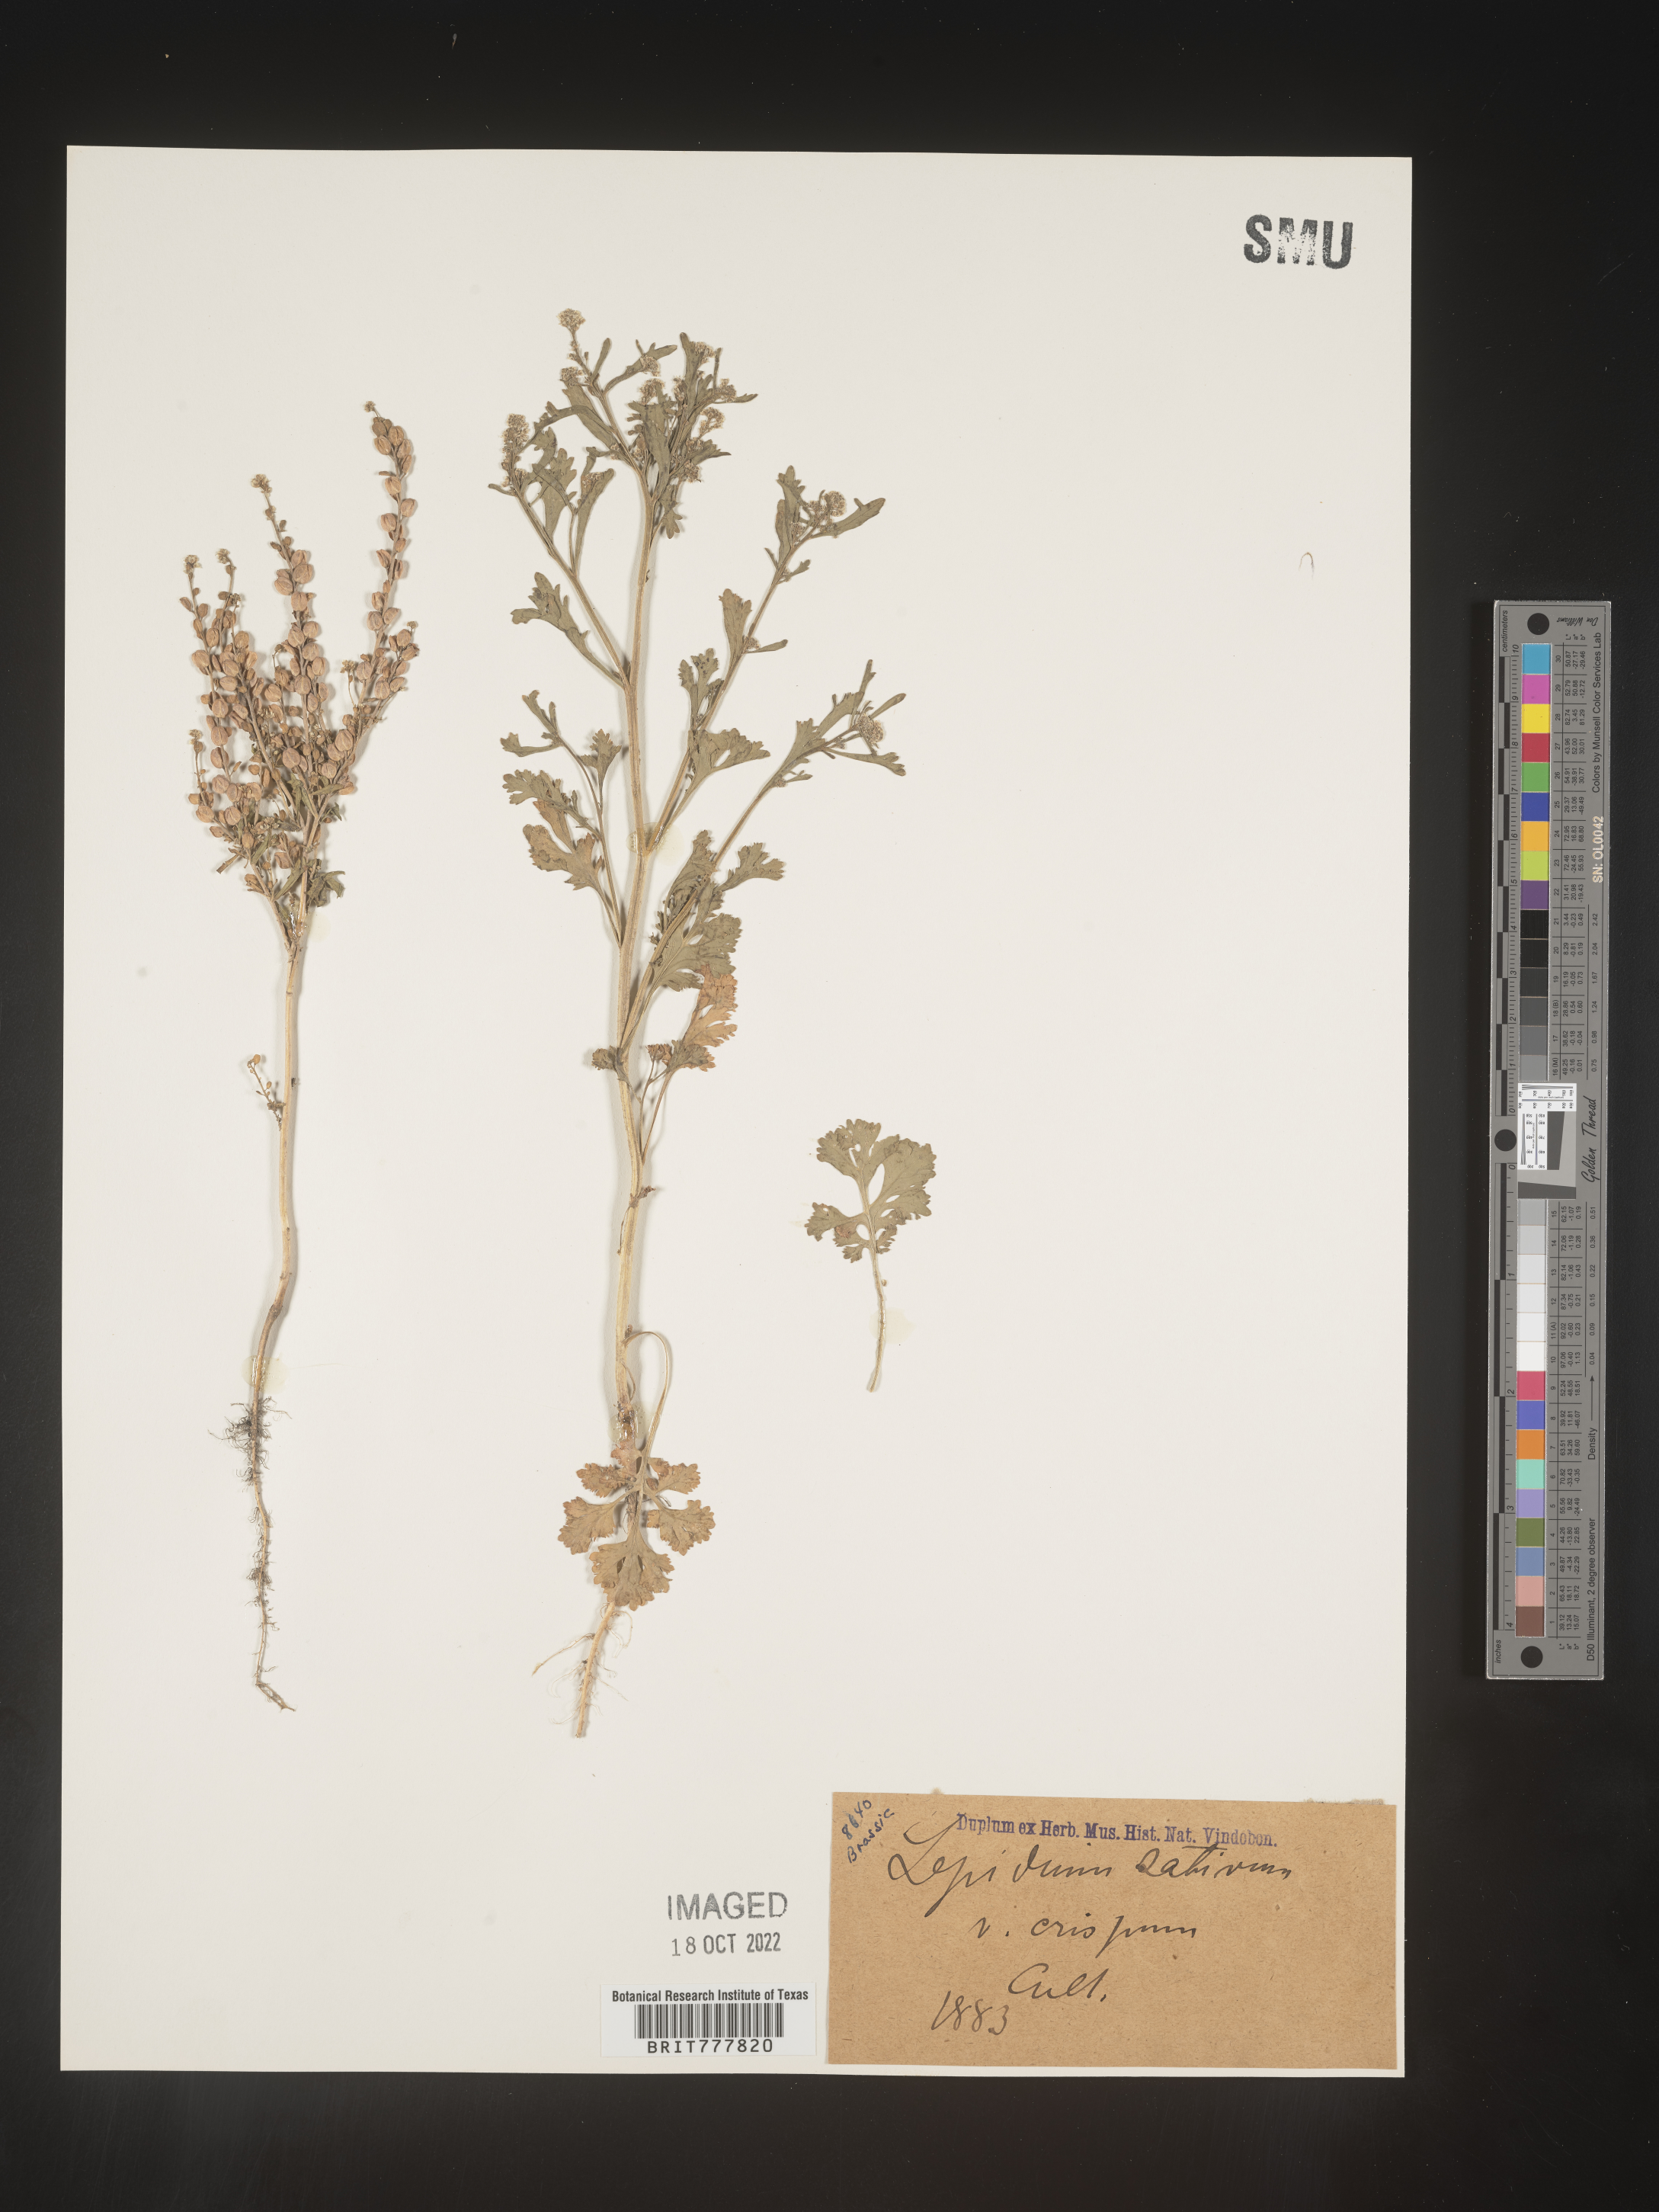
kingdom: Plantae
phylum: Tracheophyta
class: Magnoliopsida
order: Brassicales
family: Brassicaceae
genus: Lepidium
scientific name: Lepidium
